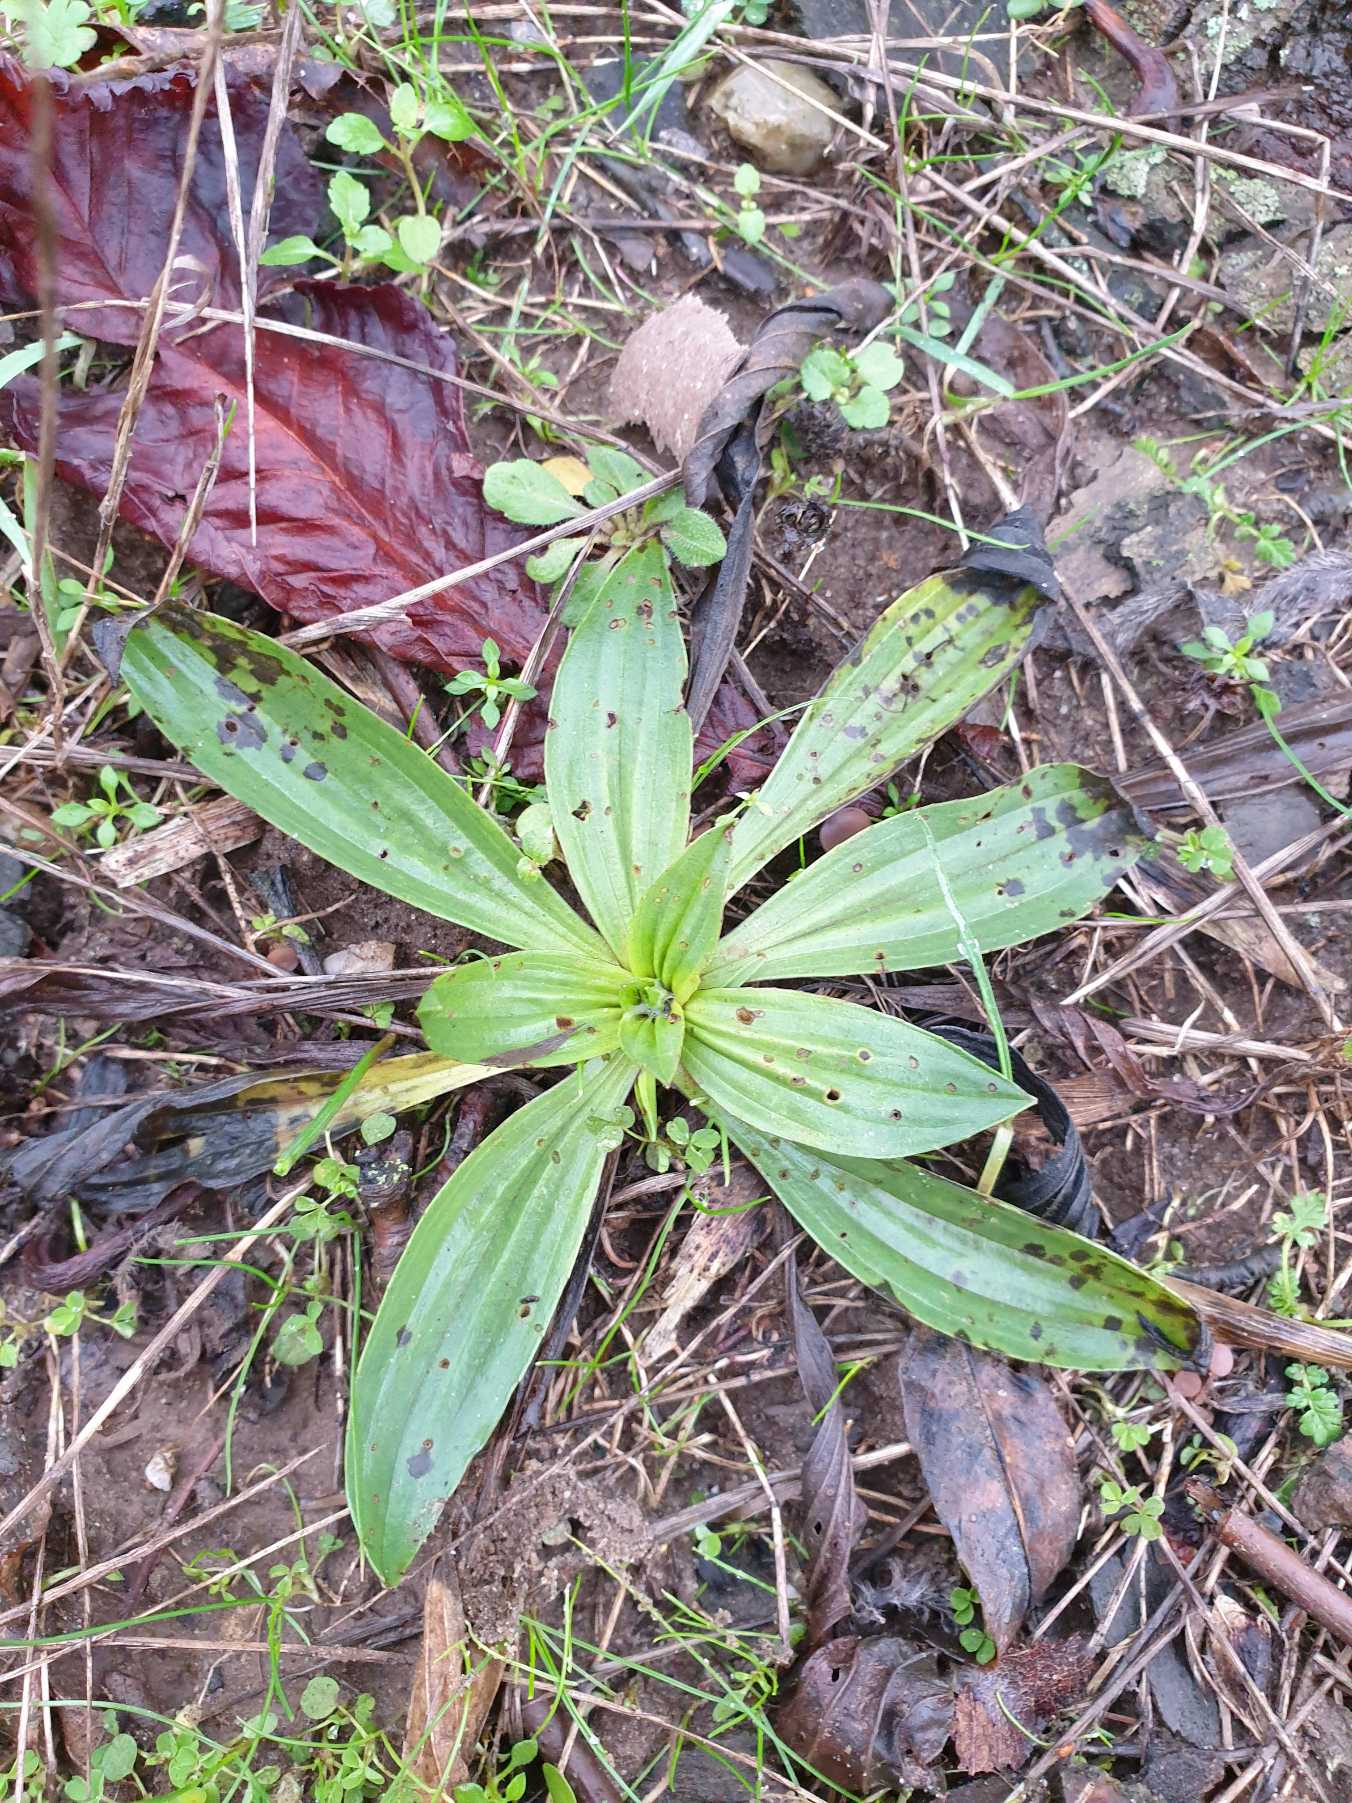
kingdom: Plantae
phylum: Tracheophyta
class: Magnoliopsida
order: Lamiales
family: Plantaginaceae
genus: Plantago
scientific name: Plantago lanceolata
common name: Lancet-vejbred
